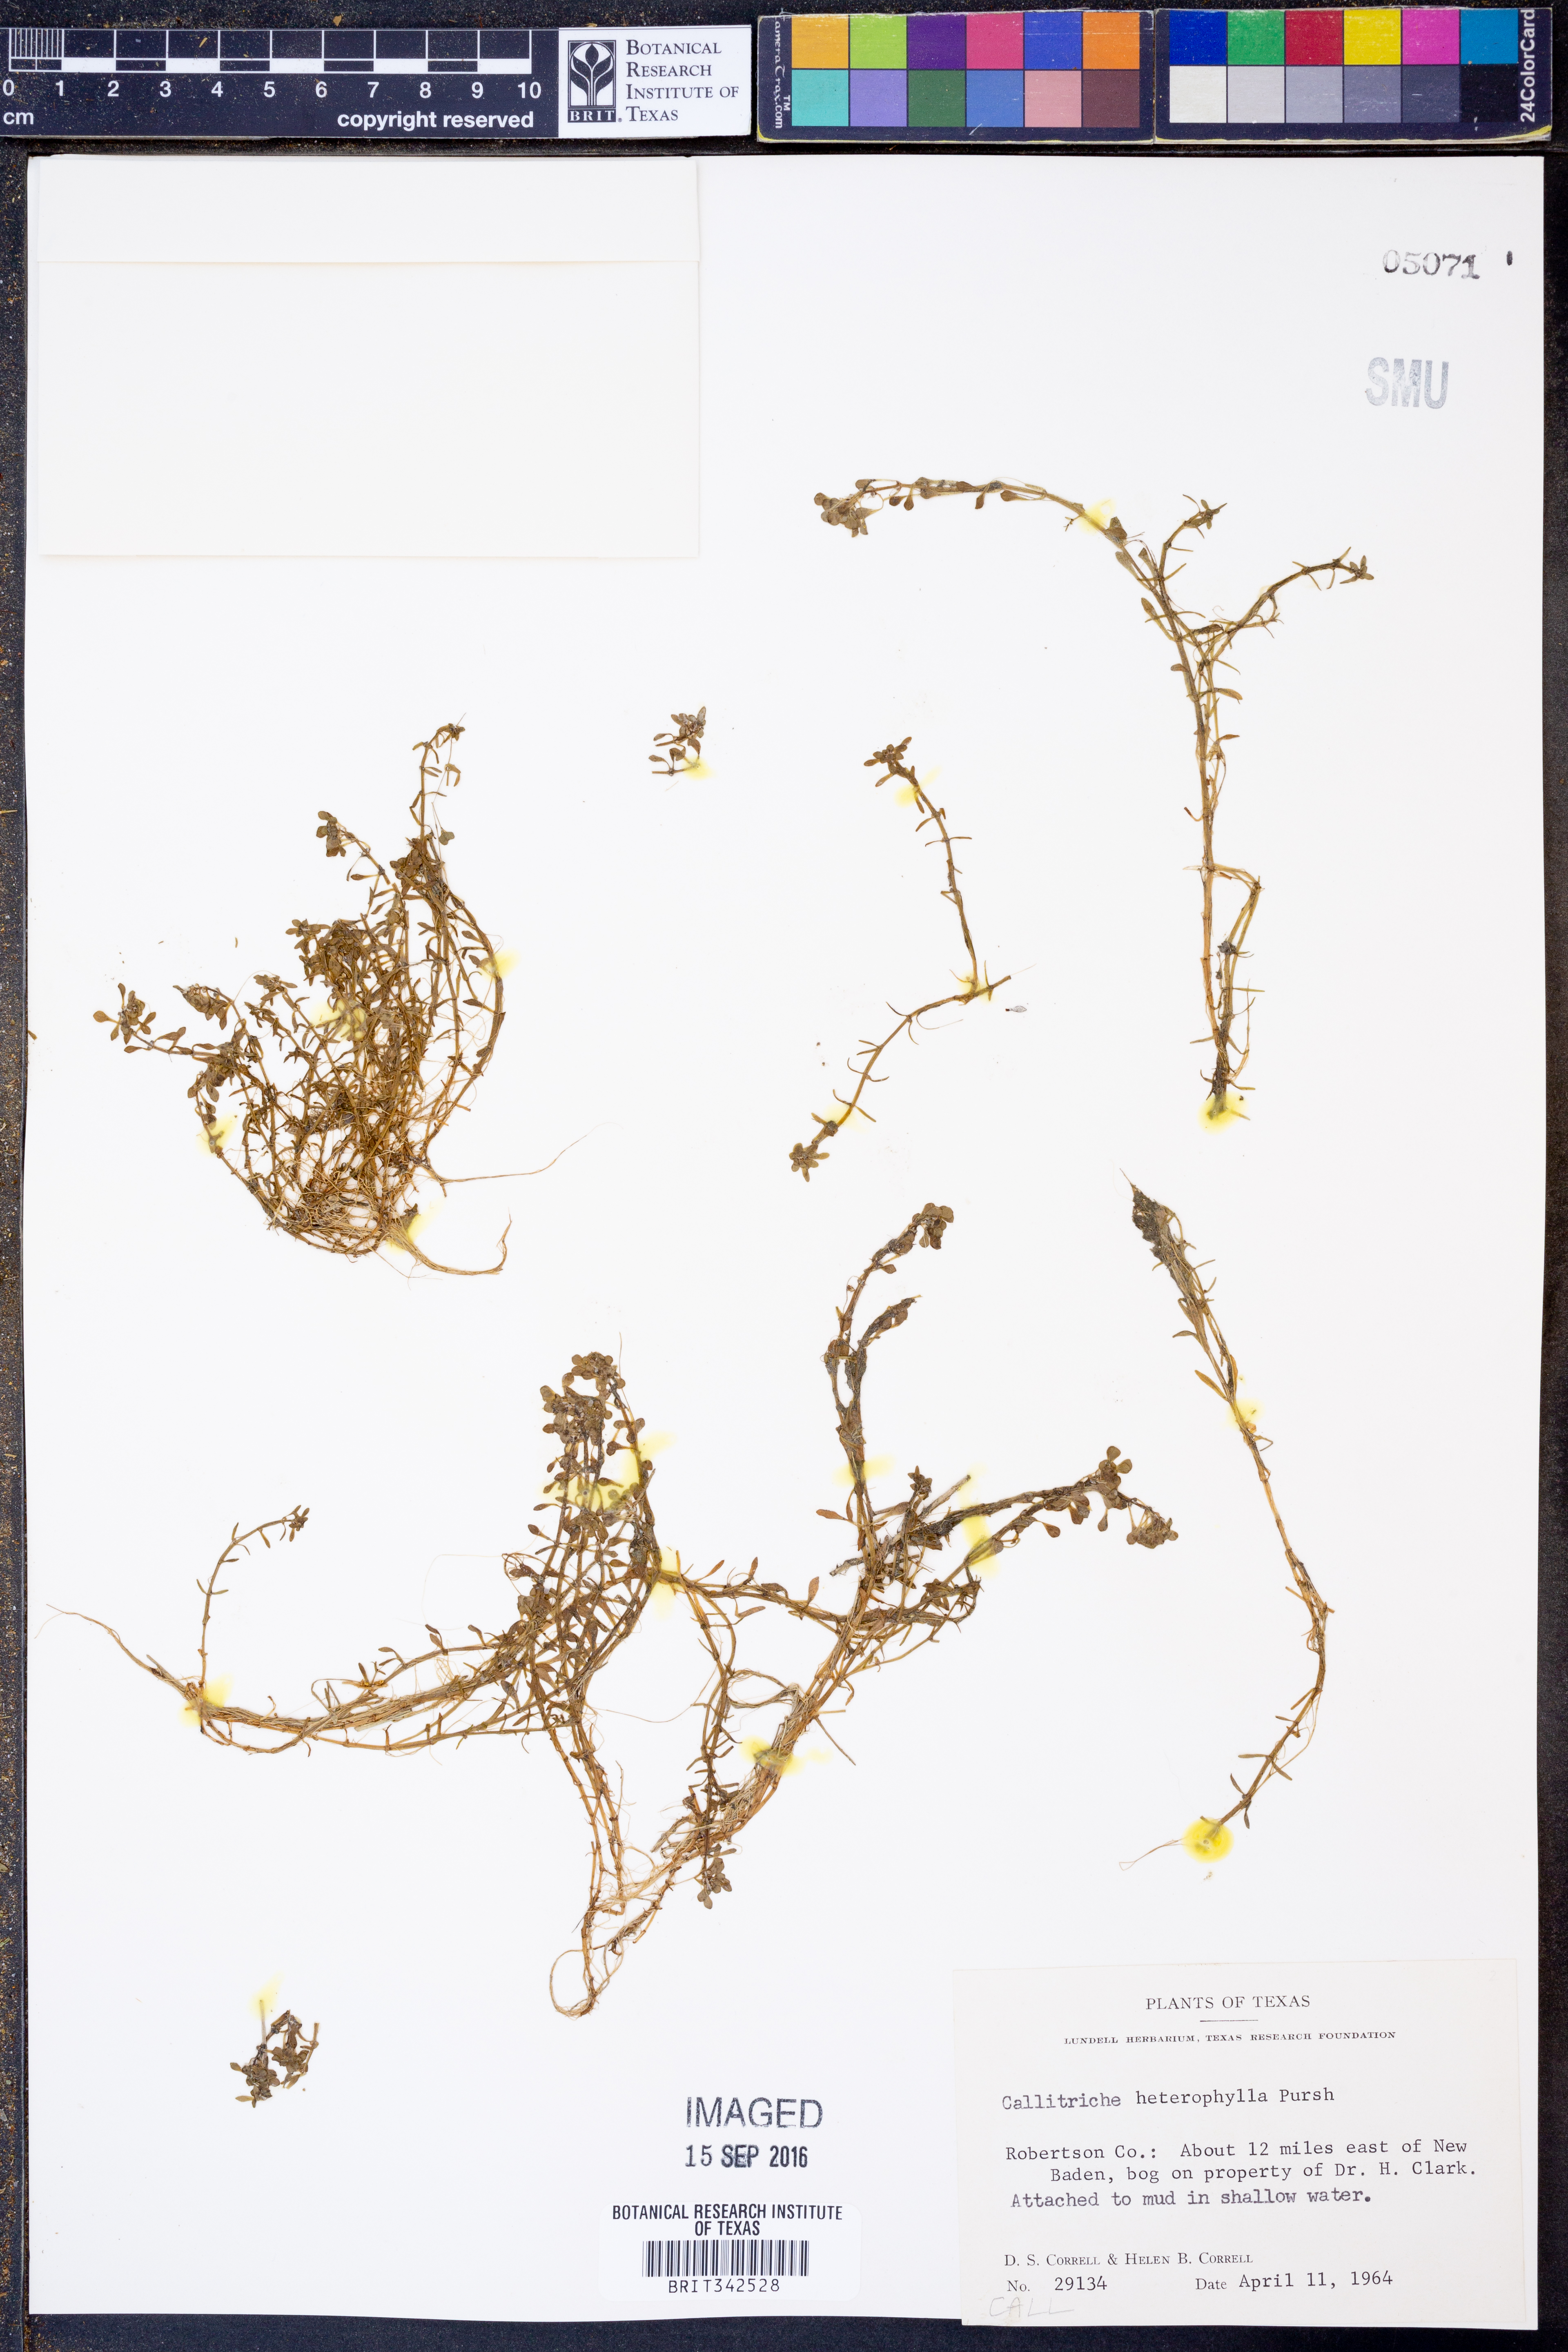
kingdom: Plantae
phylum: Tracheophyta
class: Magnoliopsida
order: Lamiales
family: Plantaginaceae
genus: Callitriche
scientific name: Callitriche heterophylla
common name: Two-headed water-starwort
